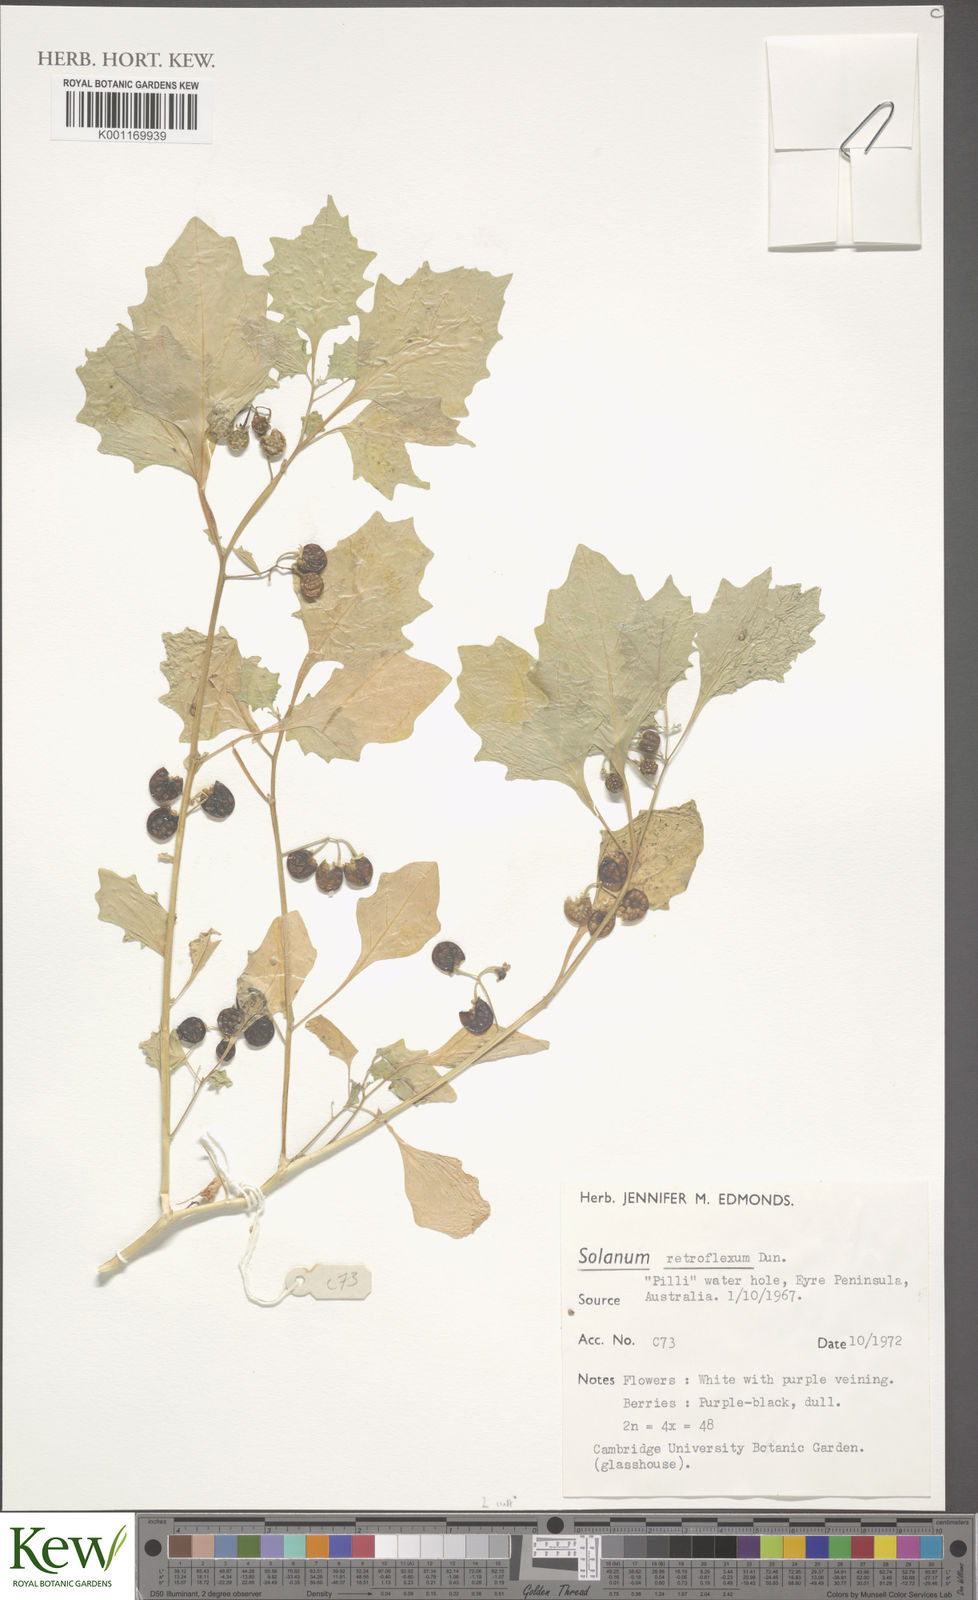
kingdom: Plantae
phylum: Tracheophyta
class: Magnoliopsida
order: Solanales
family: Solanaceae
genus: Solanum
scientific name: Solanum retroflexum
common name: Wonderberry
